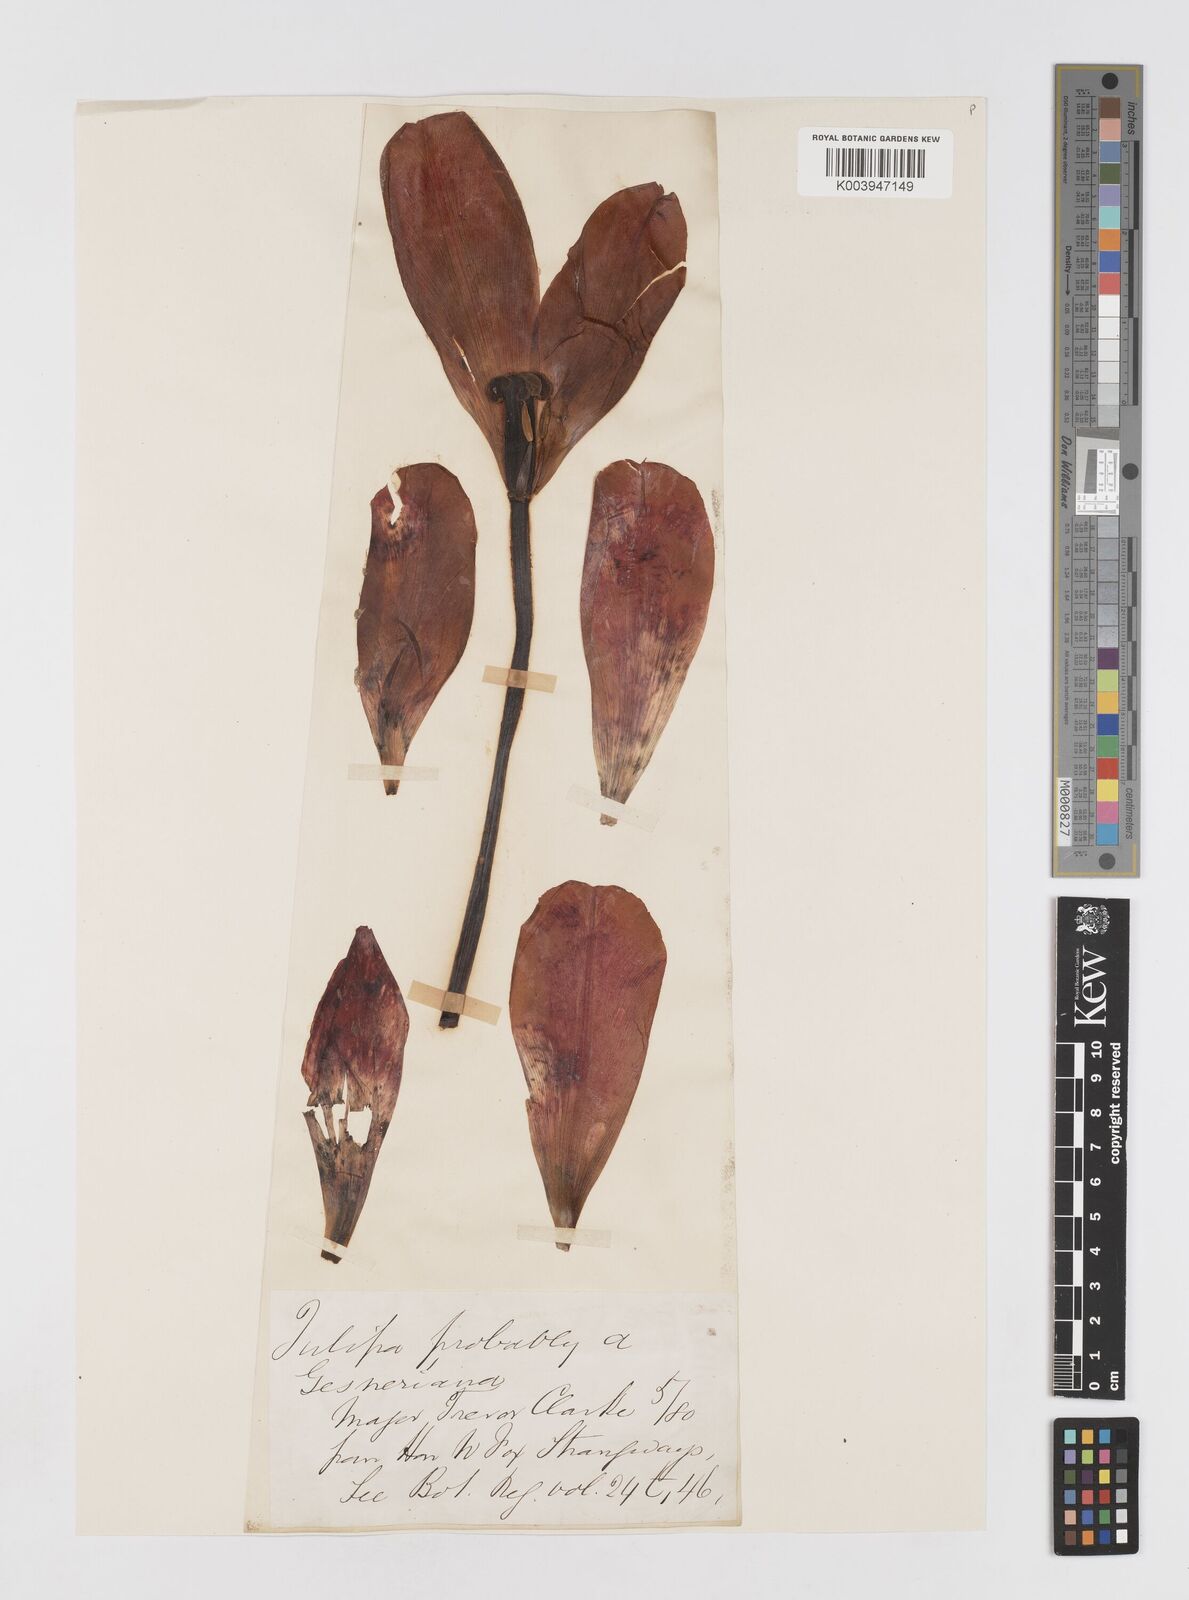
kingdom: Plantae
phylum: Tracheophyta
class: Liliopsida
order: Liliales
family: Liliaceae
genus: Tulipa
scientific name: Tulipa gesneriana
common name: Garden tulip
